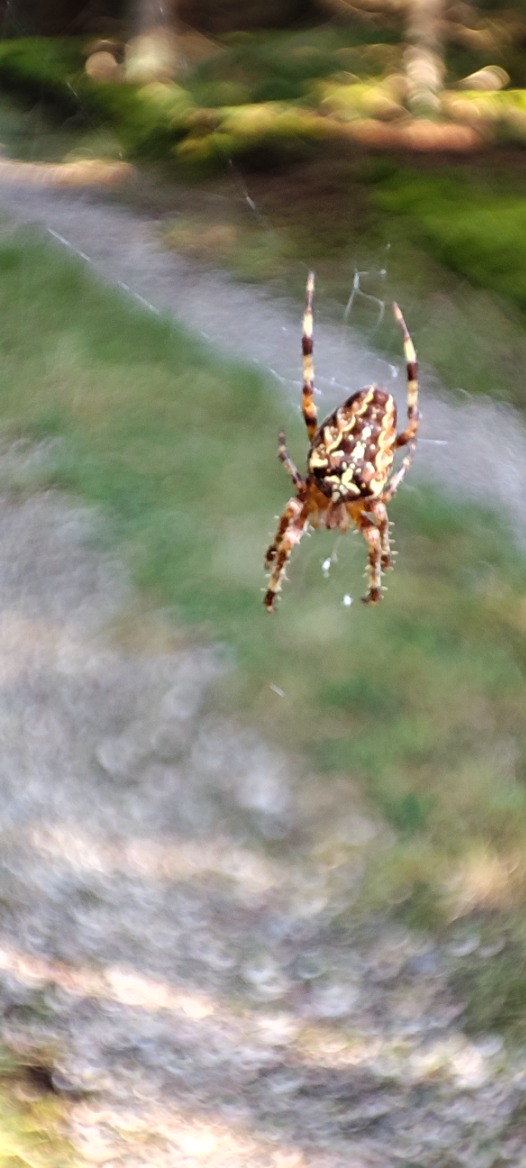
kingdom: Animalia
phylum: Arthropoda
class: Arachnida
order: Araneae
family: Araneidae
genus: Araneus
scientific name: Araneus diadematus
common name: Korsedderkop
